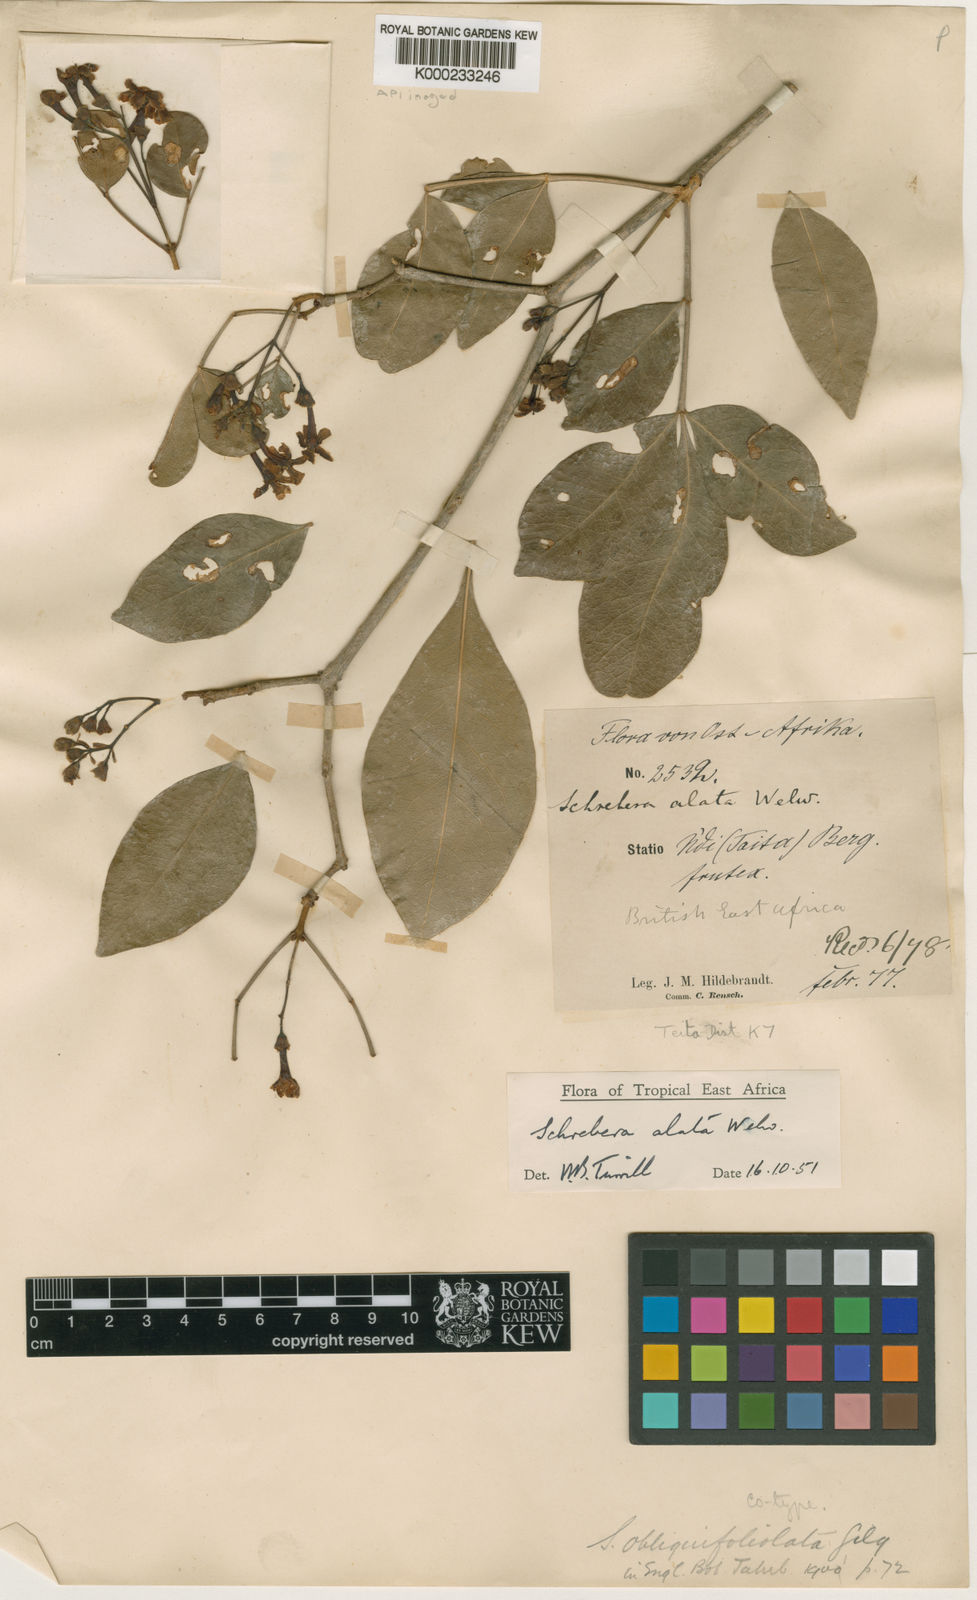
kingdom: Plantae
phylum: Tracheophyta
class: Magnoliopsida
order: Lamiales
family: Oleaceae
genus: Schrebera
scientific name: Schrebera alata
